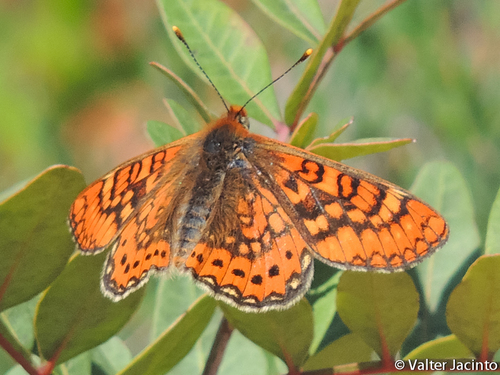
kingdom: Animalia
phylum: Arthropoda
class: Insecta
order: Lepidoptera
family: Nymphalidae
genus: Euphydryas
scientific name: Euphydryas aurinia
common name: Marsh fritillary
